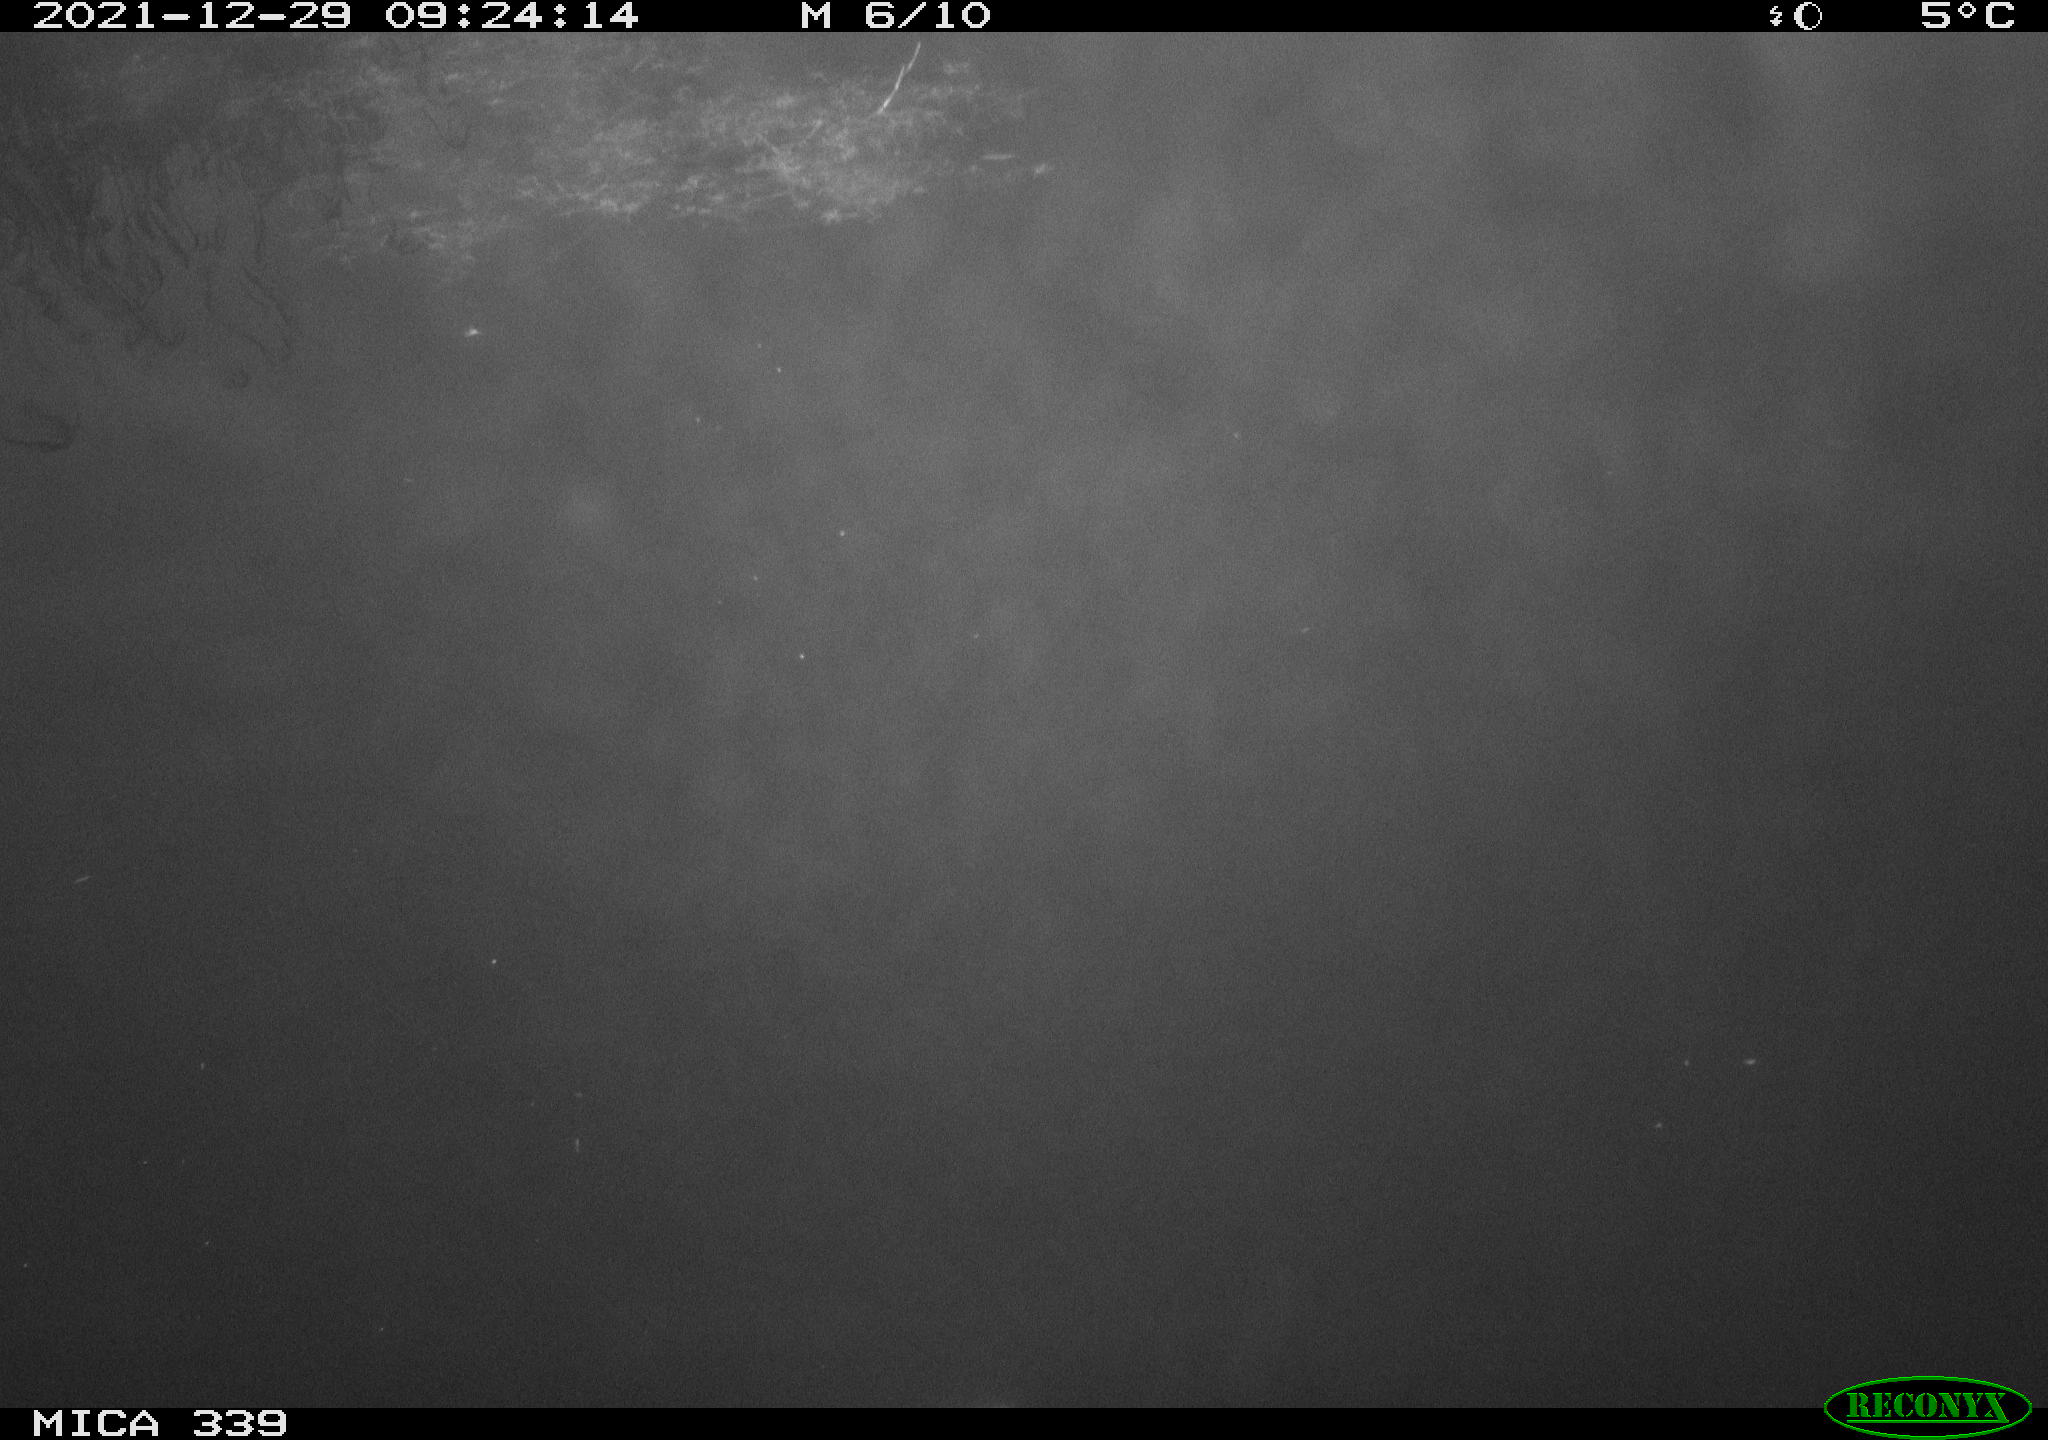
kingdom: Animalia
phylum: Chordata
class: Aves
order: Gruiformes
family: Rallidae
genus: Gallinula
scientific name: Gallinula chloropus
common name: Common moorhen
